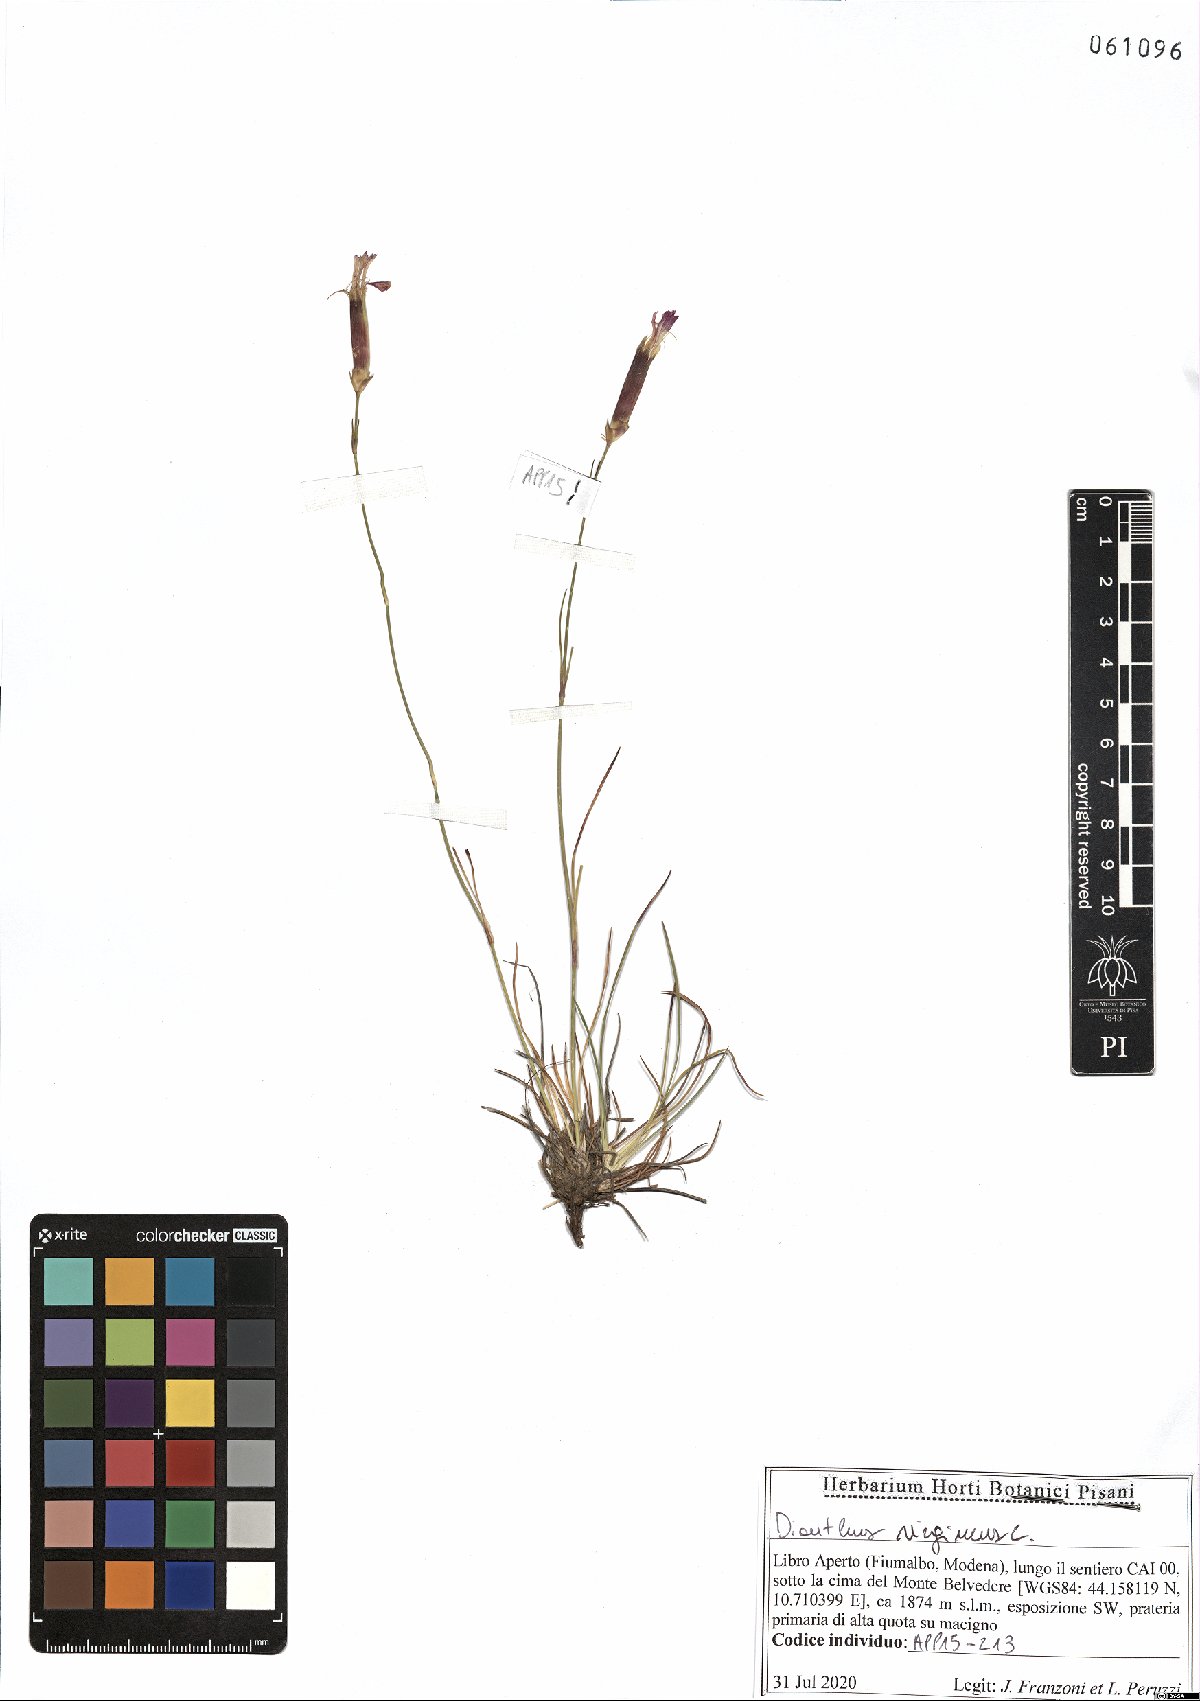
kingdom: Plantae
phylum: Tracheophyta
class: Magnoliopsida
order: Caryophyllales
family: Caryophyllaceae
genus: Dianthus
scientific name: Dianthus virgineus
